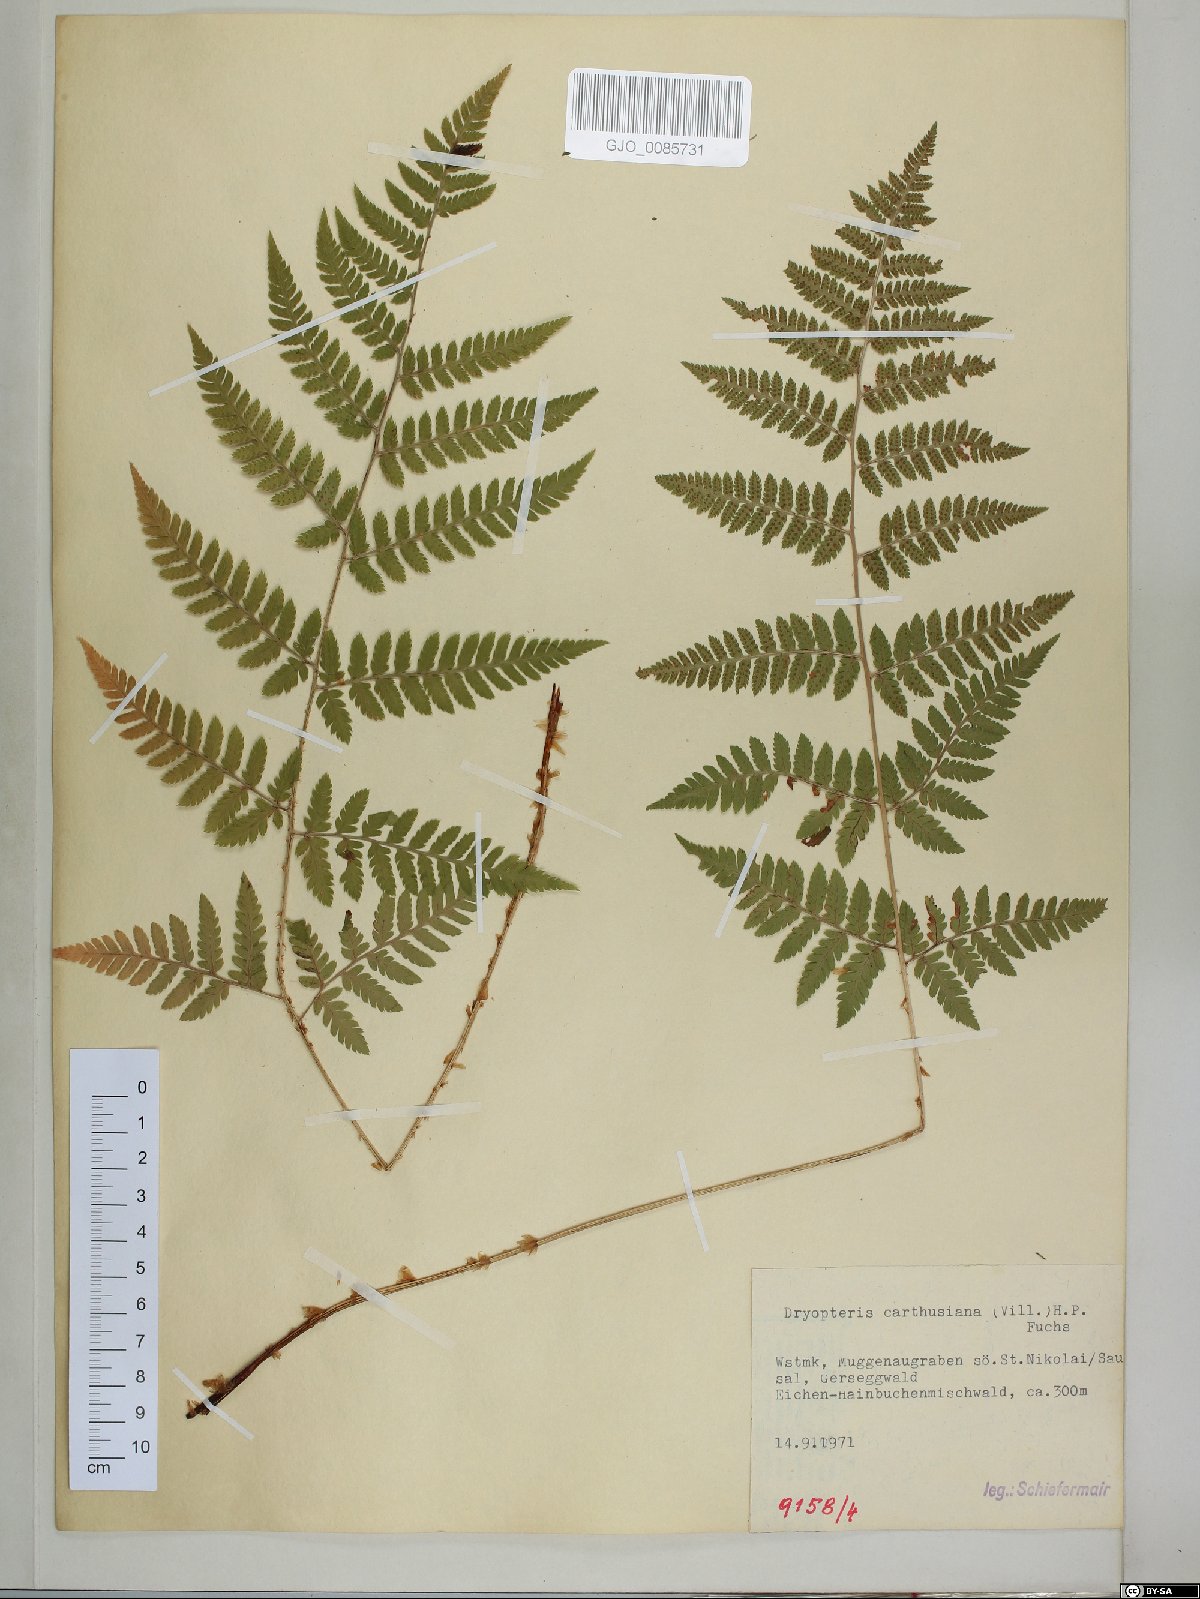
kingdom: Plantae
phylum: Tracheophyta
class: Polypodiopsida
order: Polypodiales
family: Dryopteridaceae
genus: Dryopteris
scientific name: Dryopteris carthusiana
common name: Narrow buckler-fern
